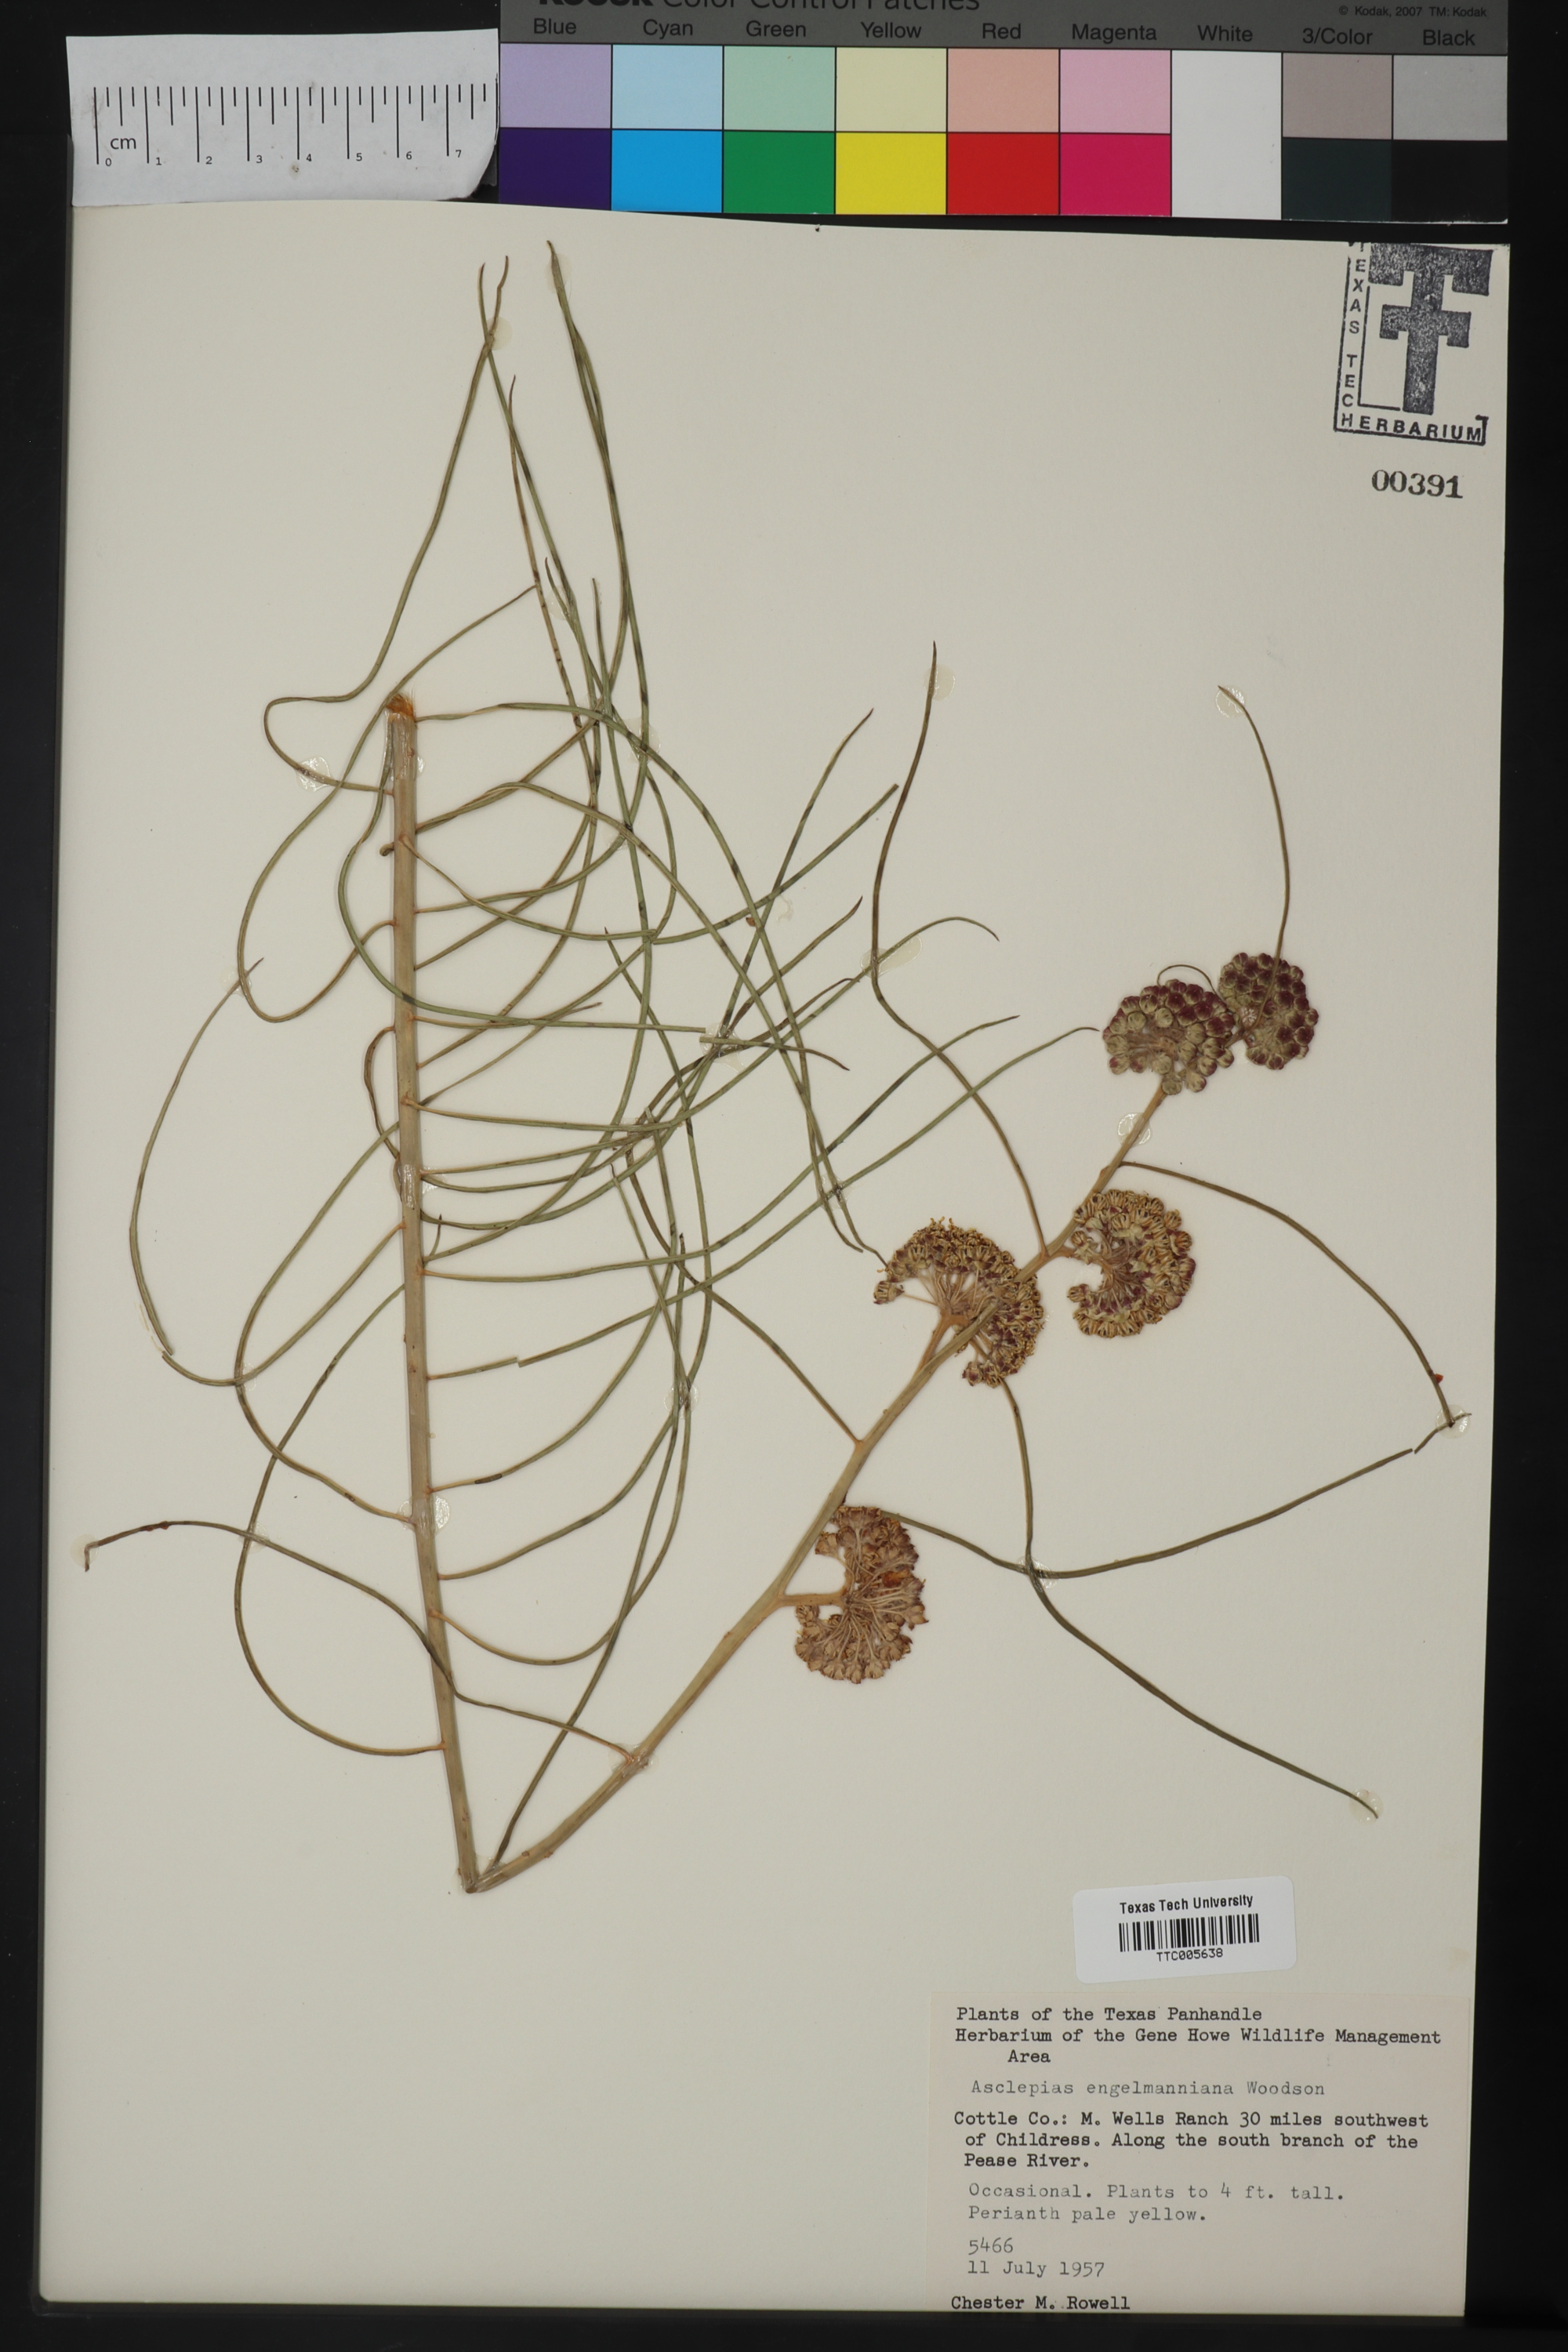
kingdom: Plantae
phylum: Tracheophyta
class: Magnoliopsida
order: Gentianales
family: Apocynaceae
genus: Asclepias
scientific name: Asclepias engelmanniana
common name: Engelmann's milkweed
